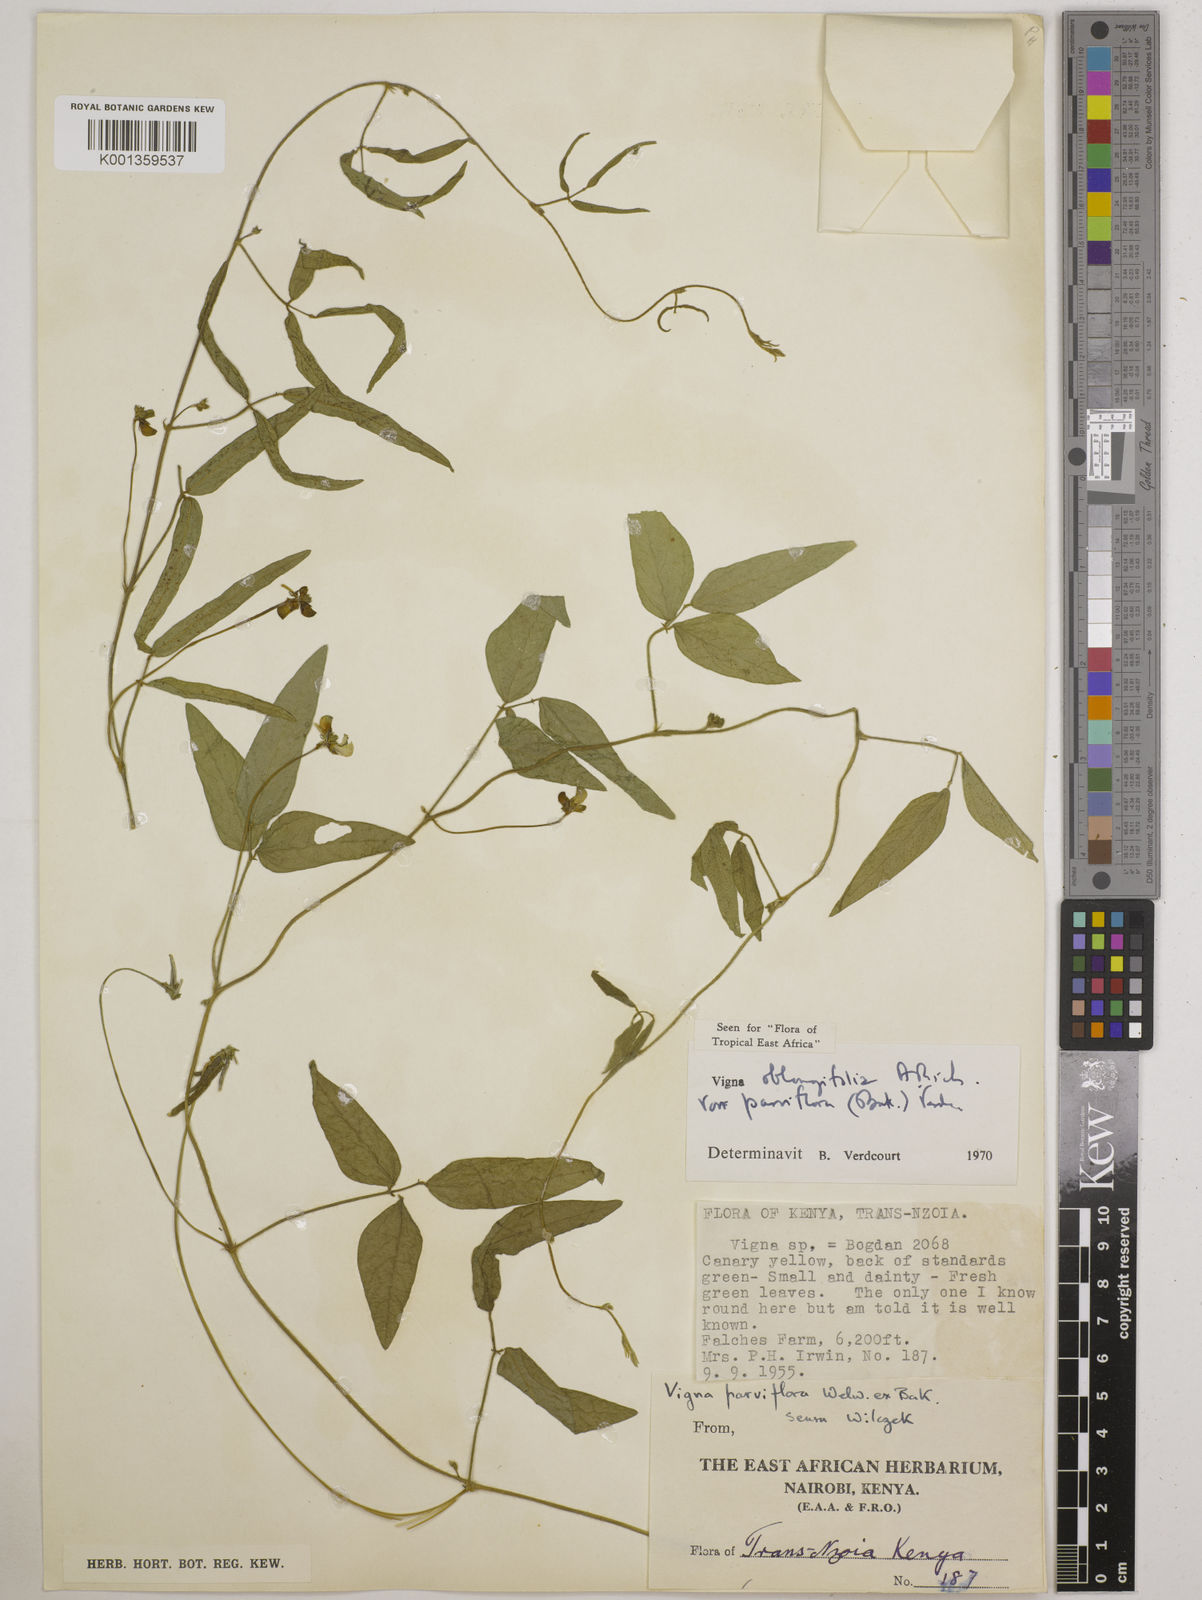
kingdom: Plantae
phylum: Tracheophyta
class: Magnoliopsida
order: Fabales
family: Fabaceae
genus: Vigna
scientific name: Vigna
